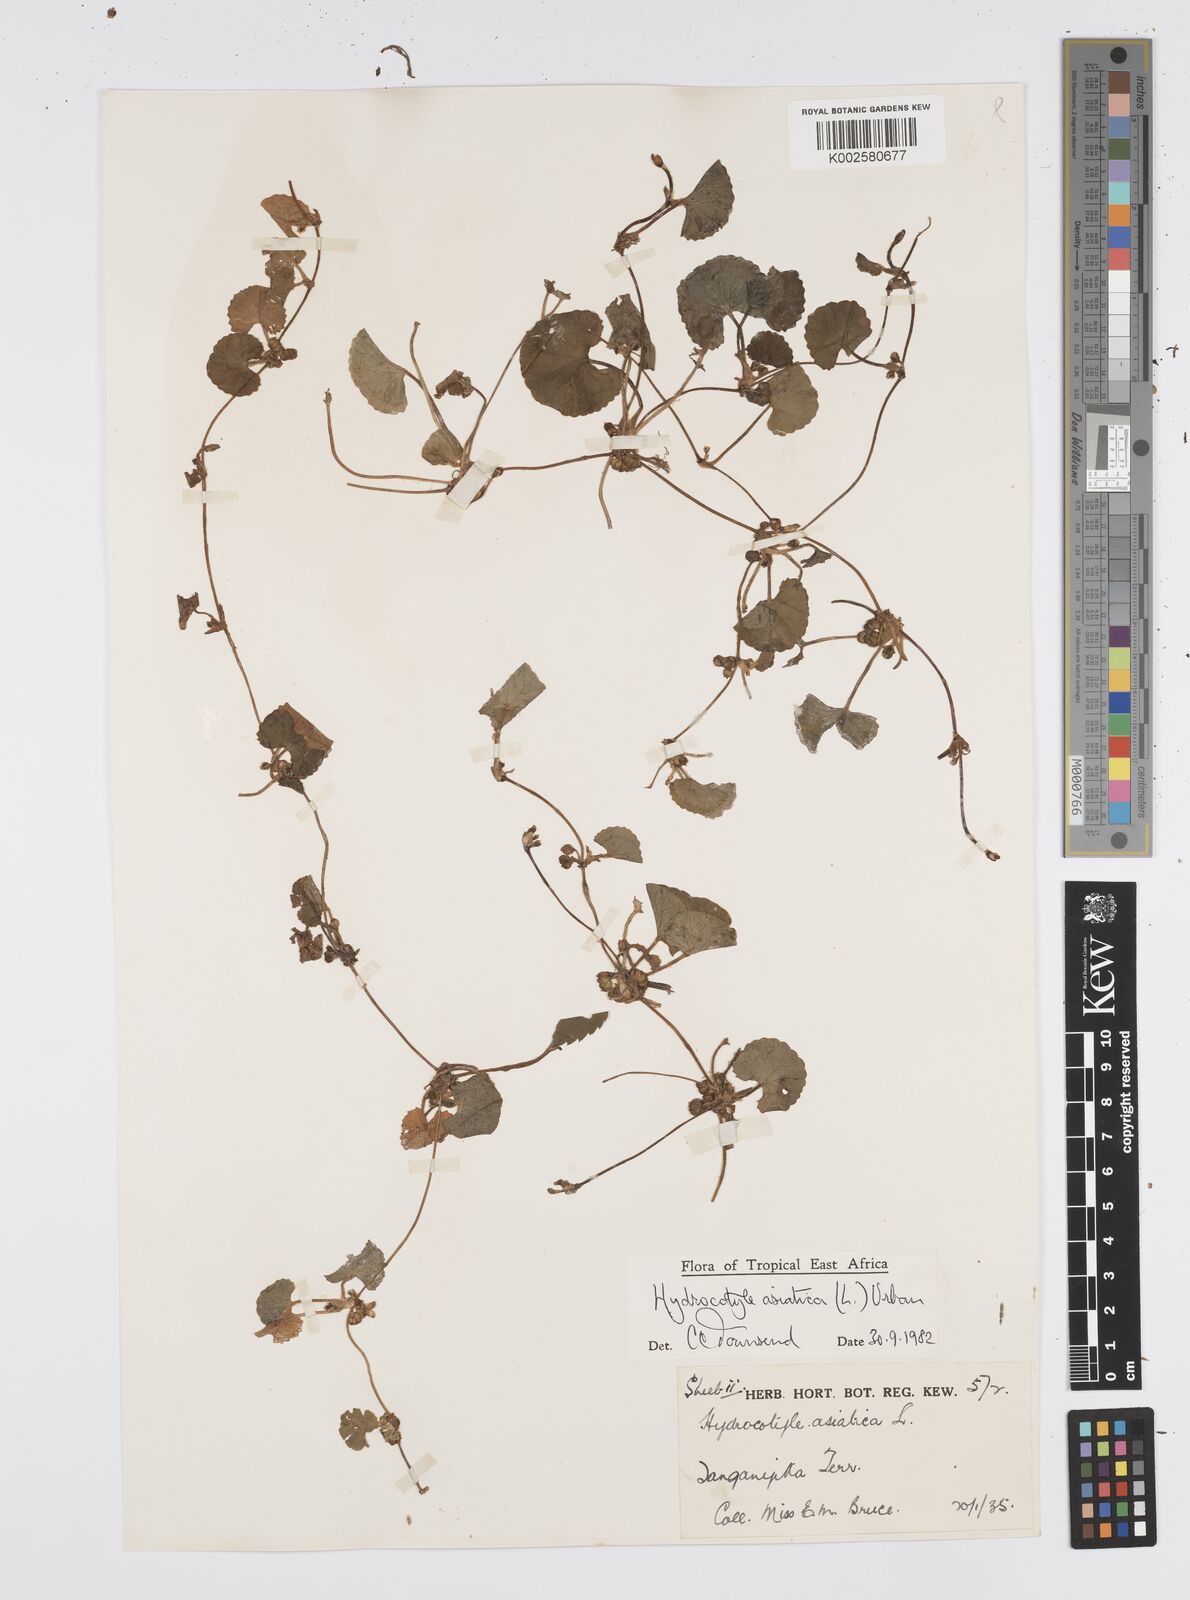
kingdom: Plantae
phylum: Tracheophyta
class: Magnoliopsida
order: Apiales
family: Apiaceae
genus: Centella
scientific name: Centella asiatica
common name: Spadeleaf
